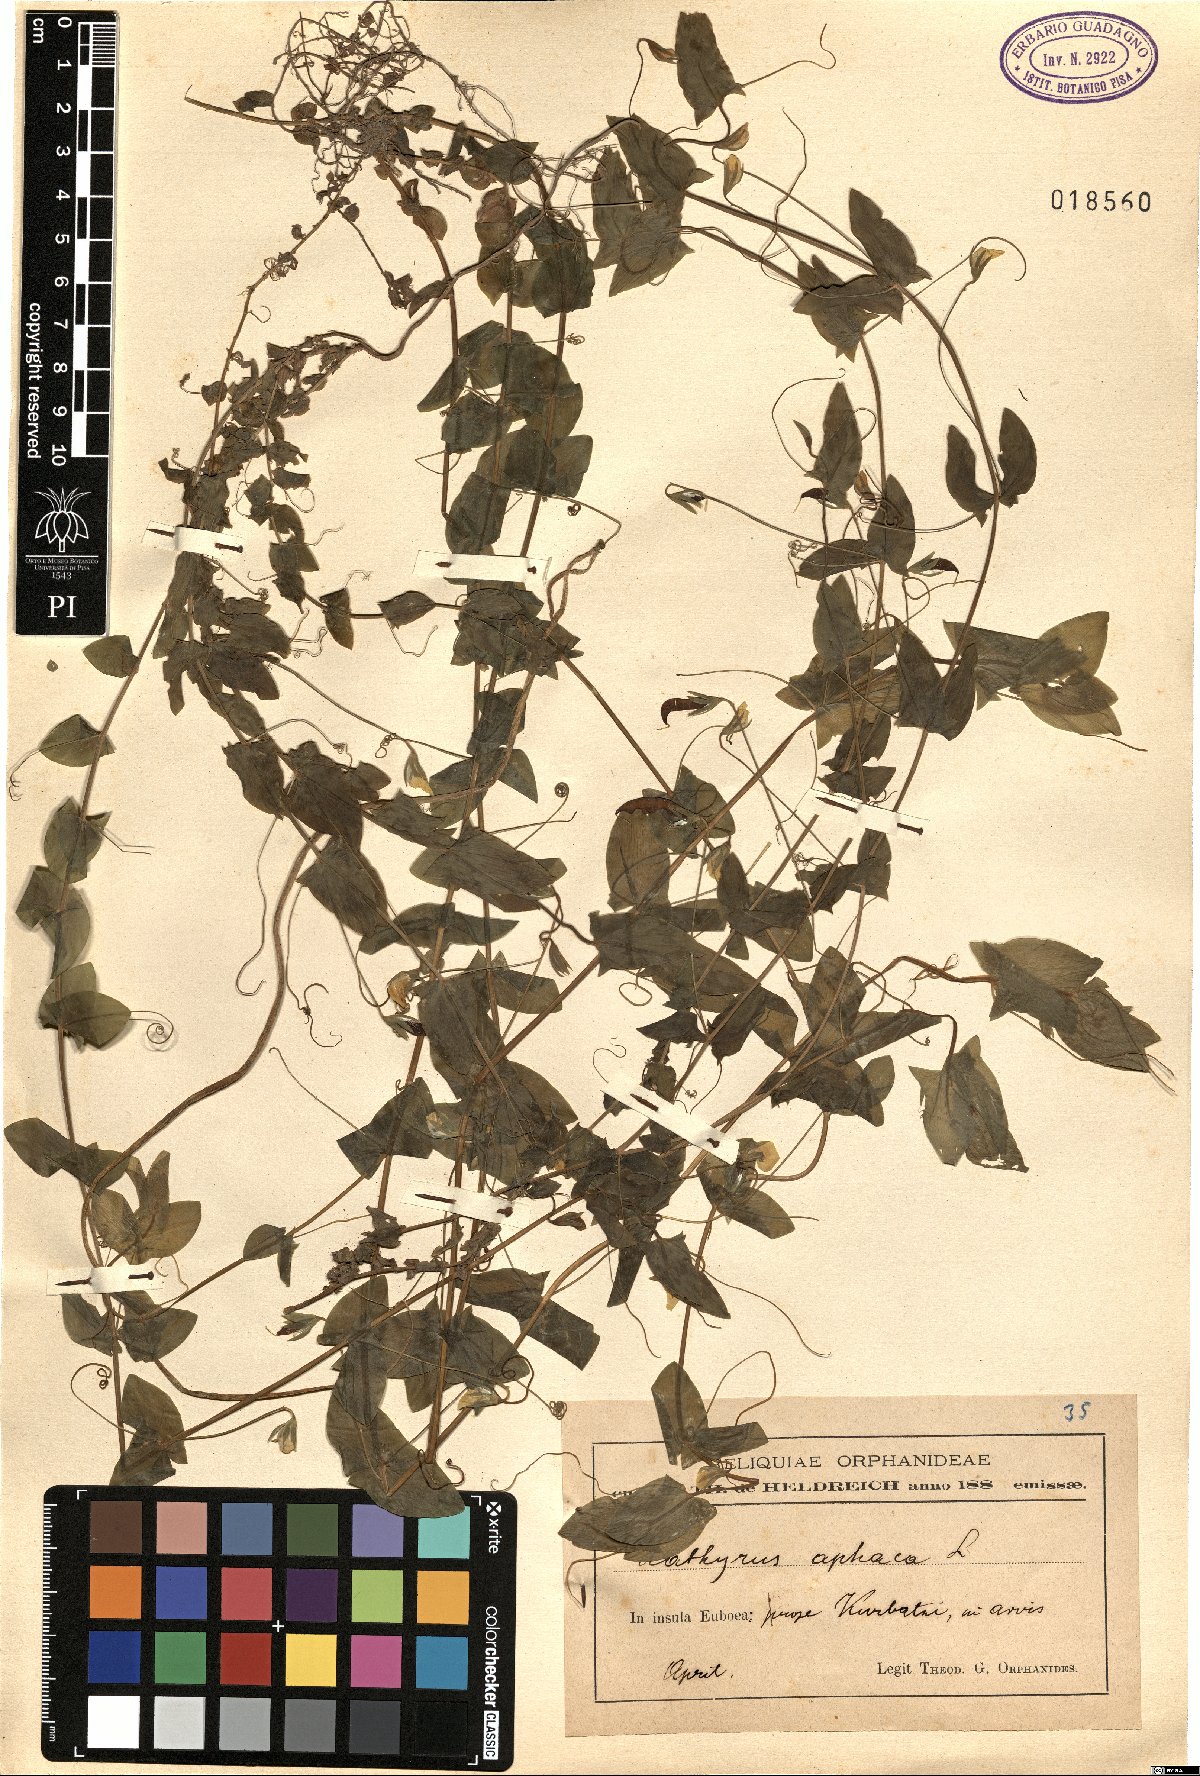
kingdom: Plantae
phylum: Tracheophyta
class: Magnoliopsida
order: Fabales
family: Fabaceae
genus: Lathyrus
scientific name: Lathyrus aphaca
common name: Yellow vetchling
